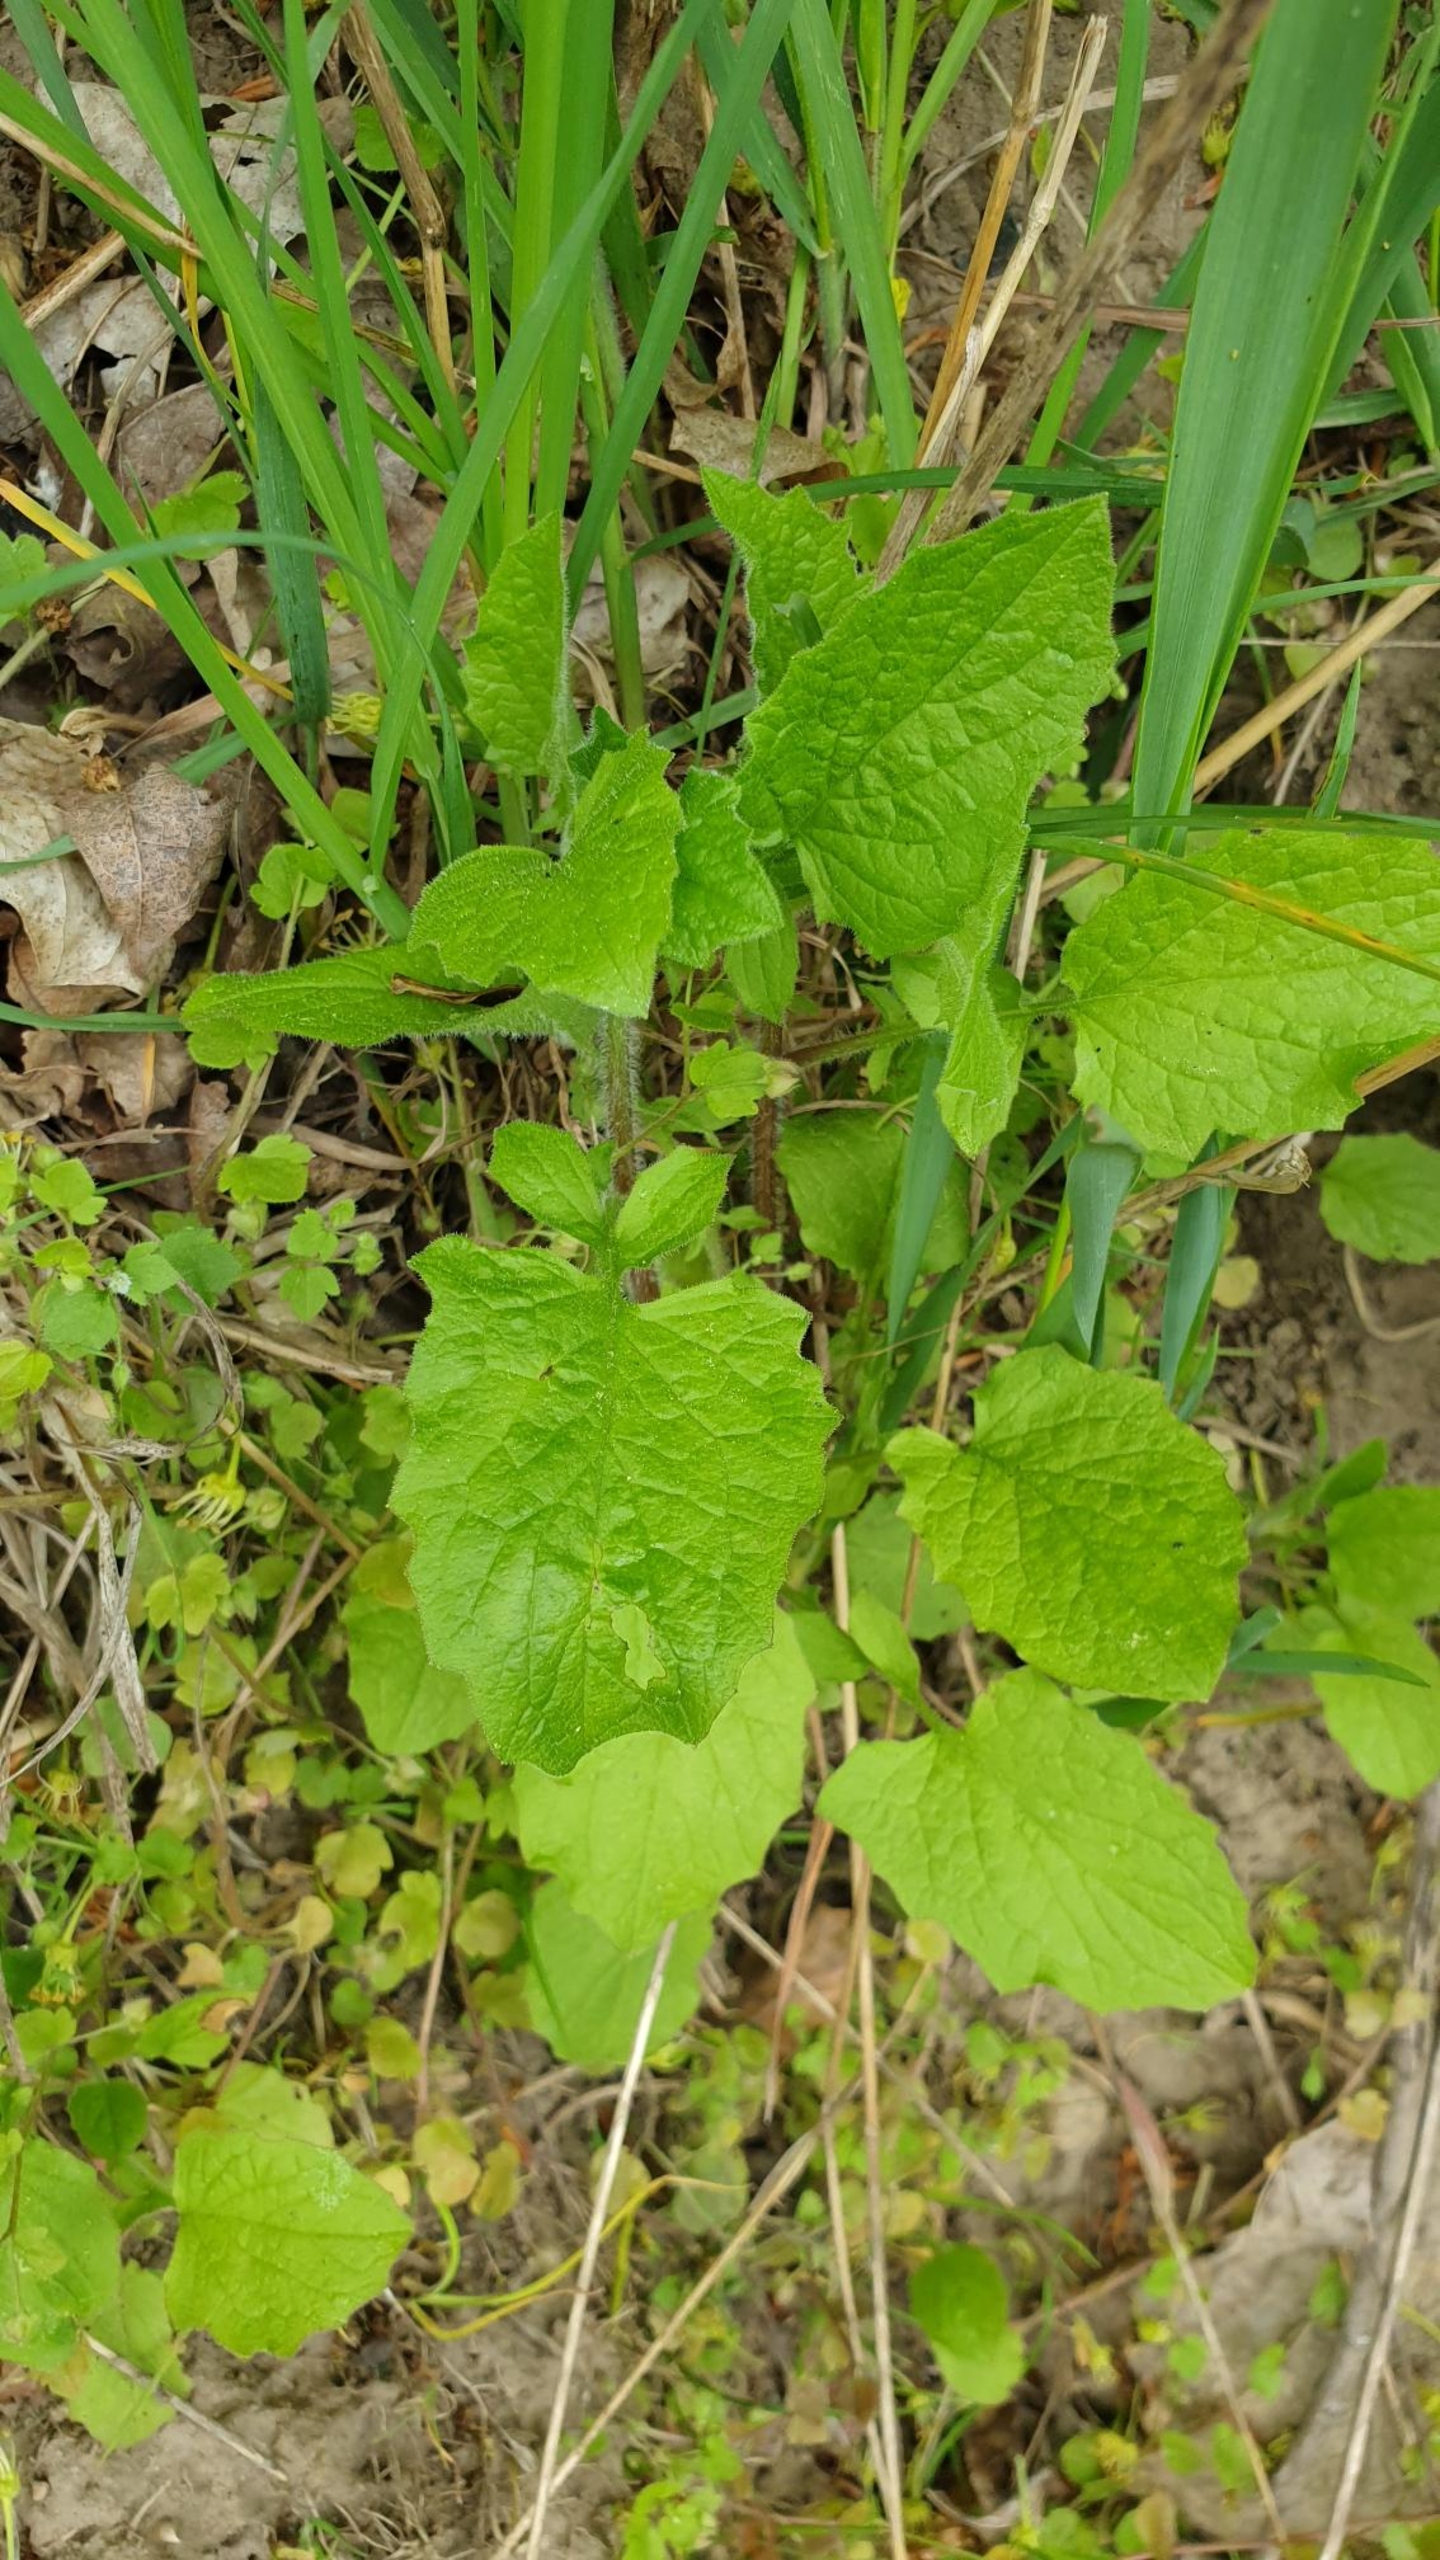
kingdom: Plantae
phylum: Tracheophyta
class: Magnoliopsida
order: Asterales
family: Asteraceae
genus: Lapsana
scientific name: Lapsana communis
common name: Haremad
